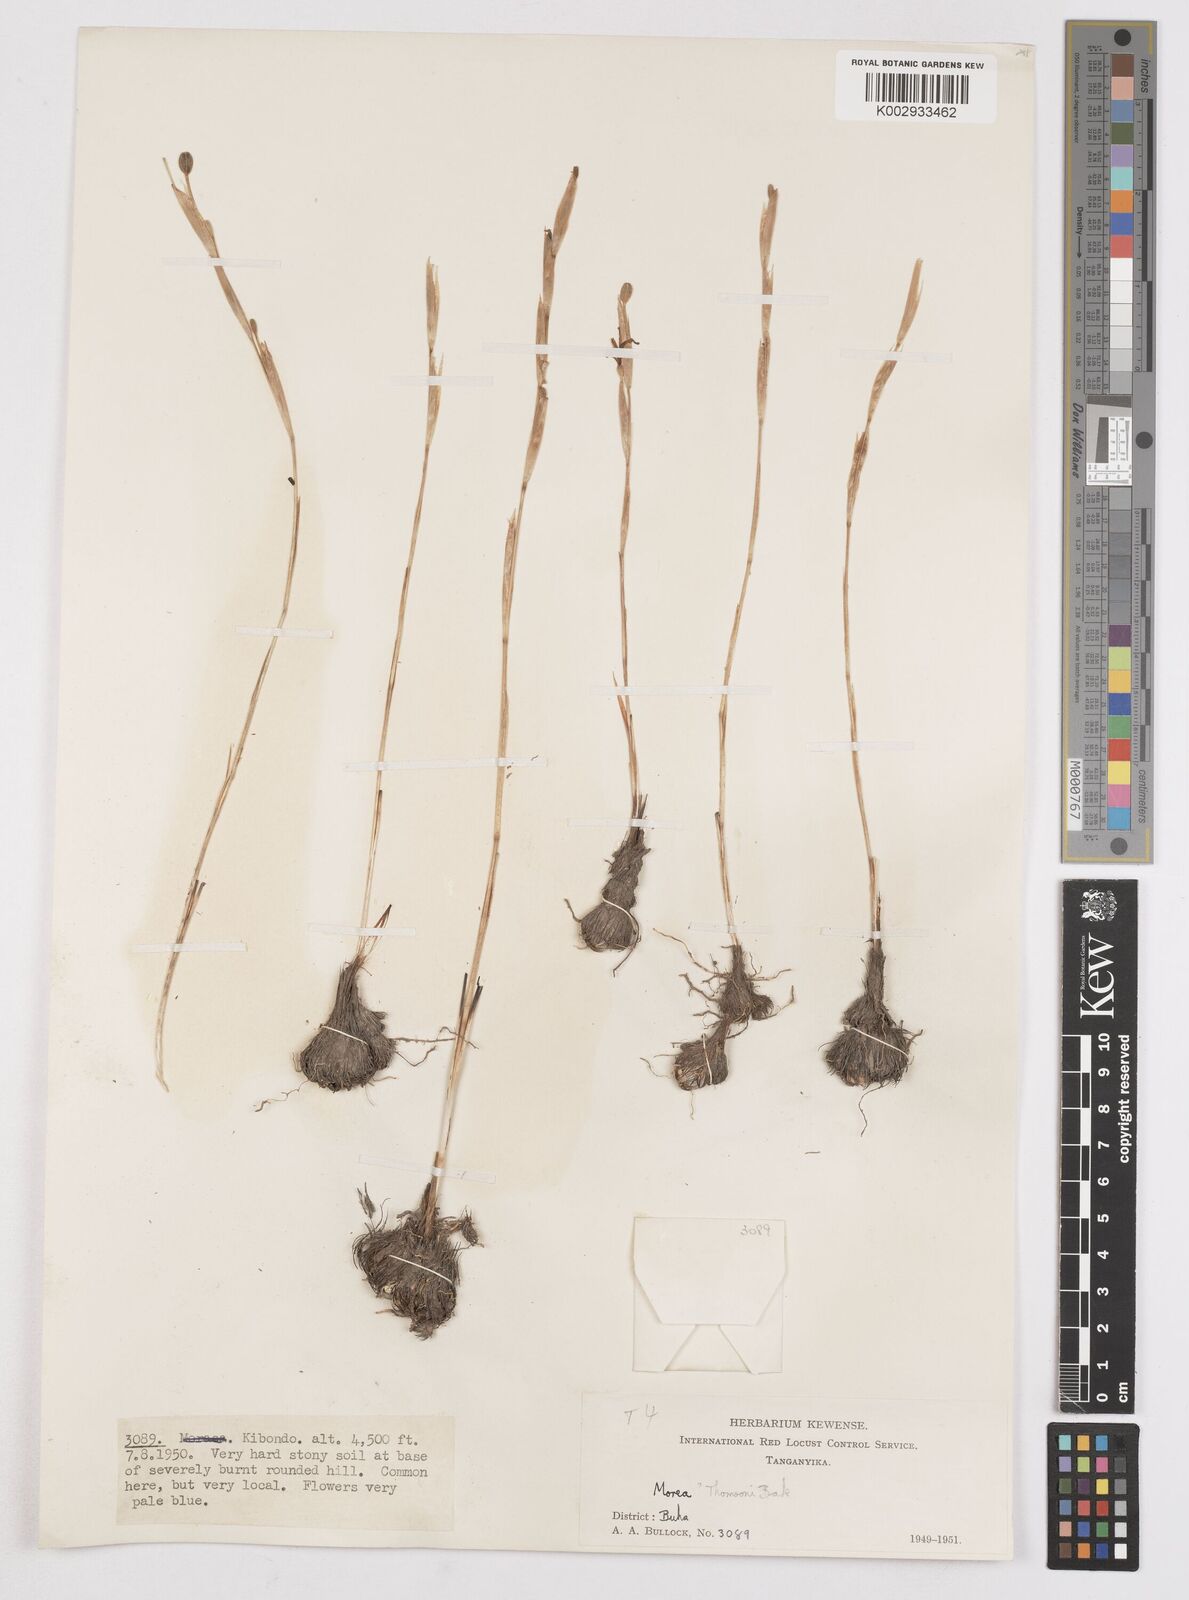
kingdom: Plantae
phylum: Tracheophyta
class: Liliopsida
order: Asparagales
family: Iridaceae
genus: Moraea
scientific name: Moraea thomsonii
